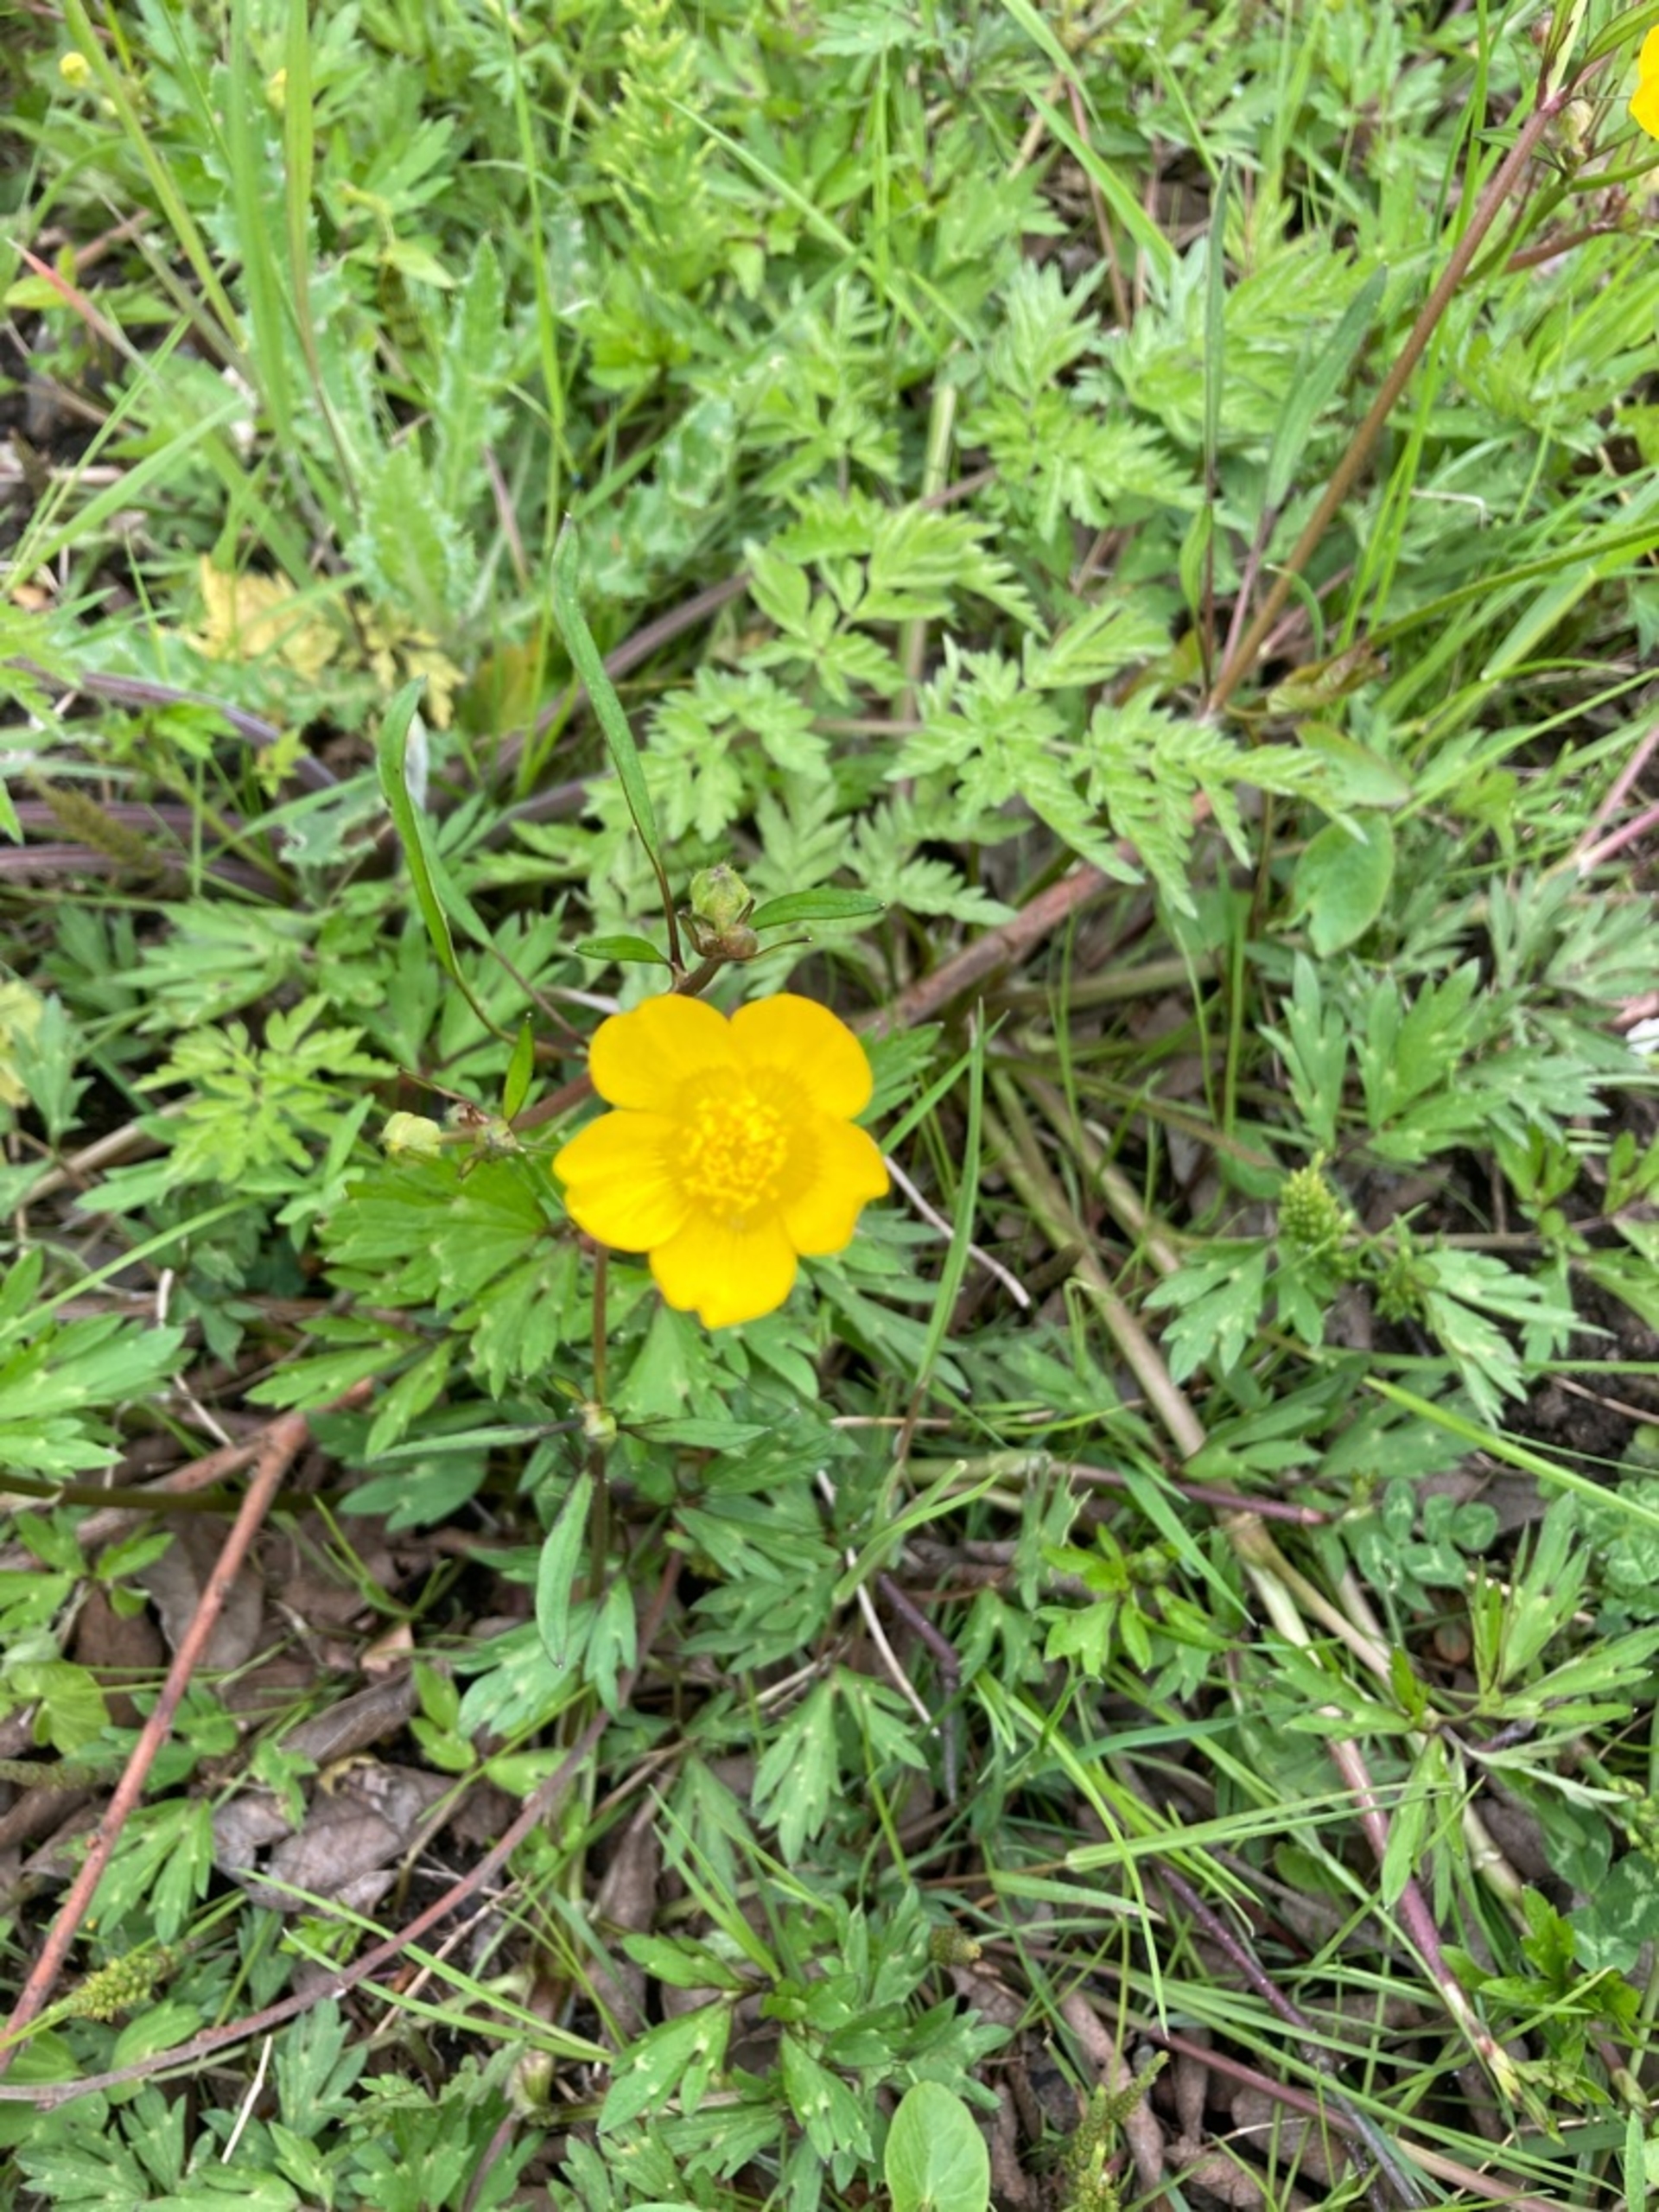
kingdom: Plantae
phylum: Tracheophyta
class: Magnoliopsida
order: Ranunculales
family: Ranunculaceae
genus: Ranunculus
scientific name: Ranunculus repens
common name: Lav ranunkel
